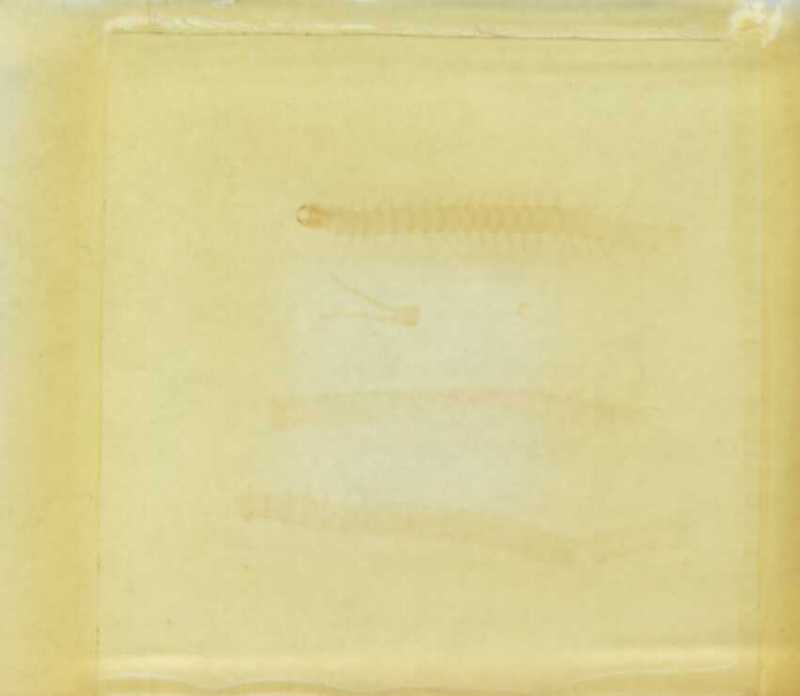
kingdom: Animalia
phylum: Arthropoda
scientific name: Arthropoda
